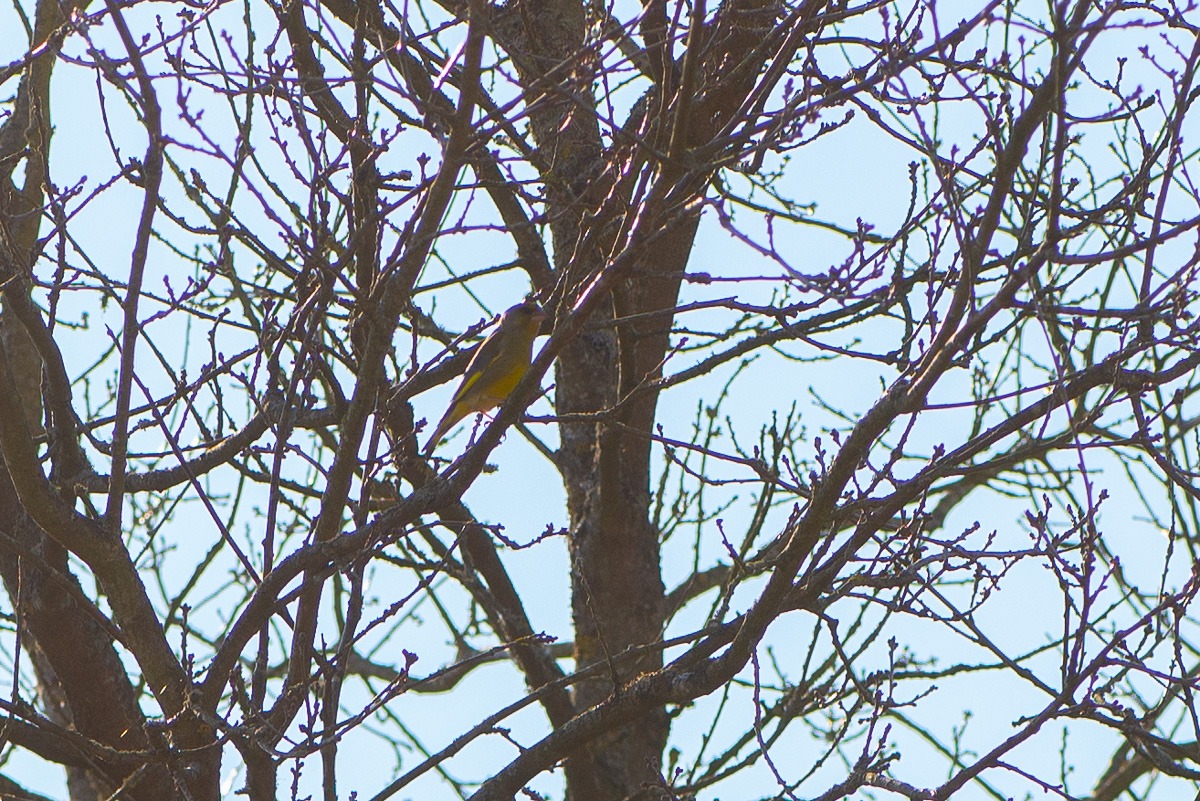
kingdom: Plantae
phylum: Tracheophyta
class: Liliopsida
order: Poales
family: Poaceae
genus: Chloris
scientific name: Chloris chloris
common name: Grønirisk
